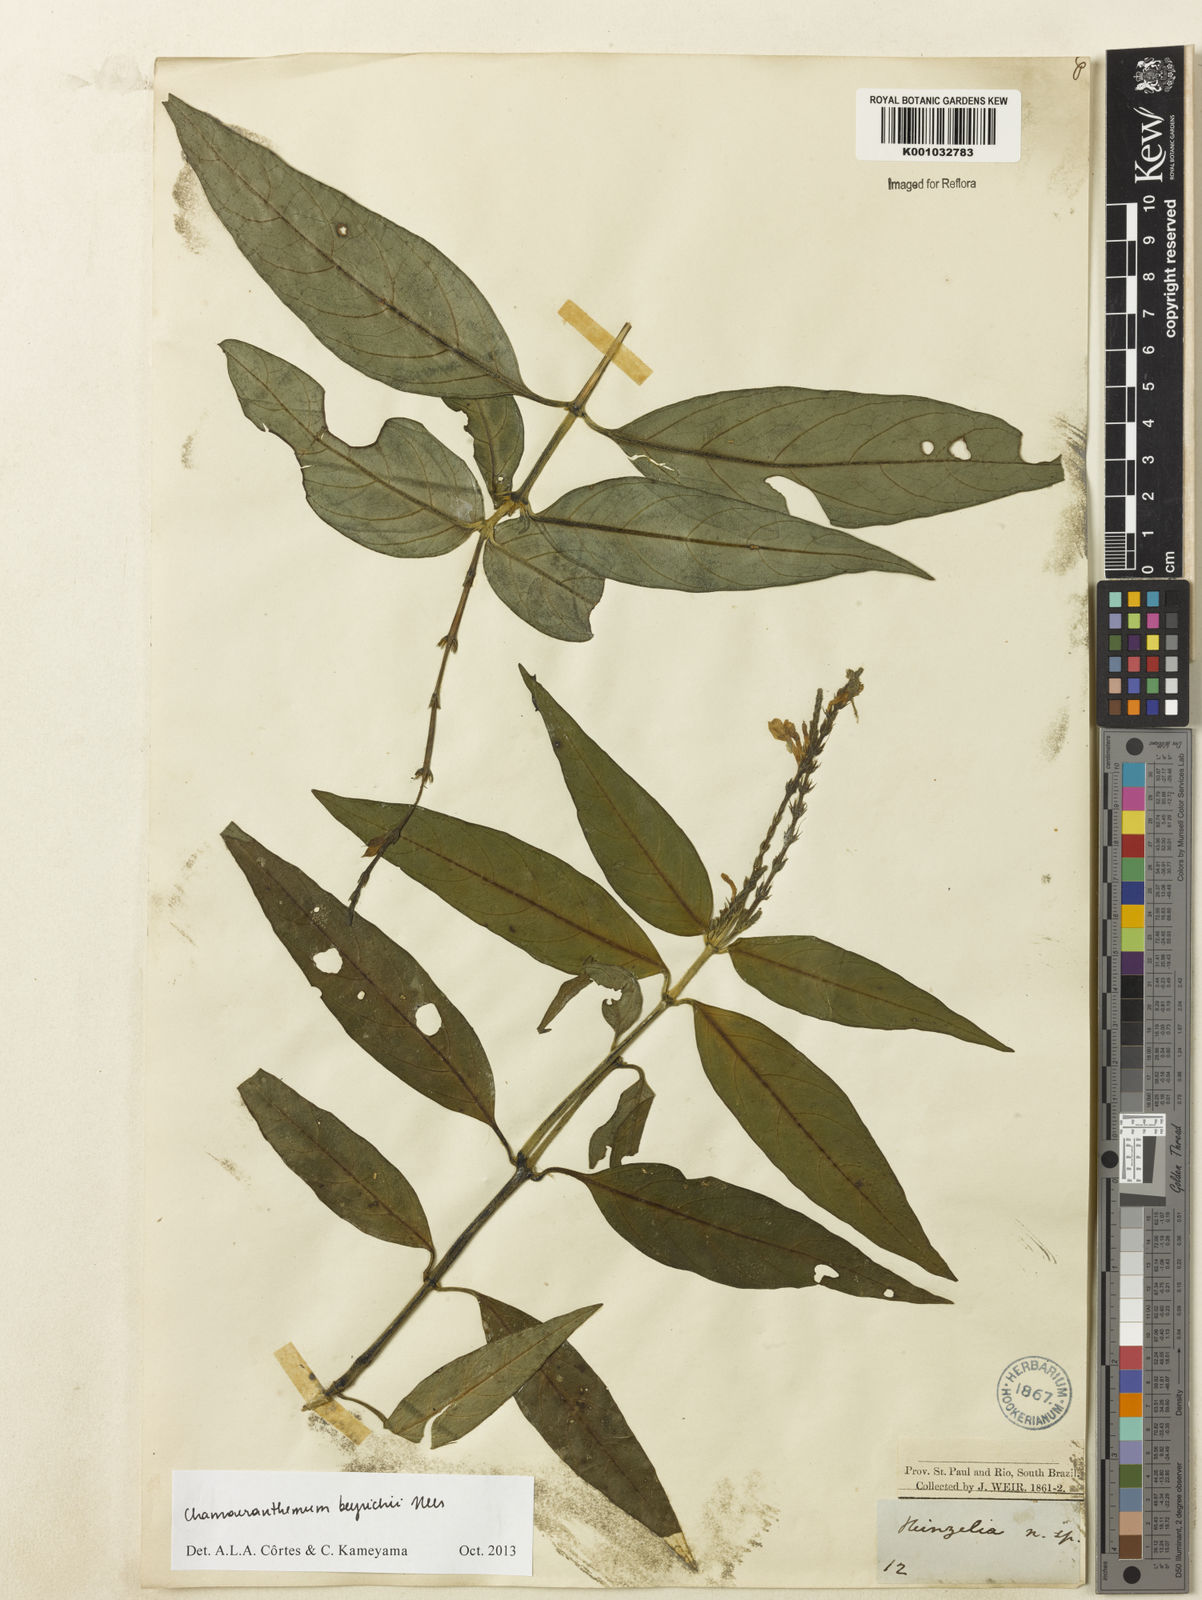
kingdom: Plantae
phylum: Tracheophyta
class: Magnoliopsida
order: Lamiales
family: Acanthaceae
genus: Chamaeranthemum
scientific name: Chamaeranthemum beyrichii
